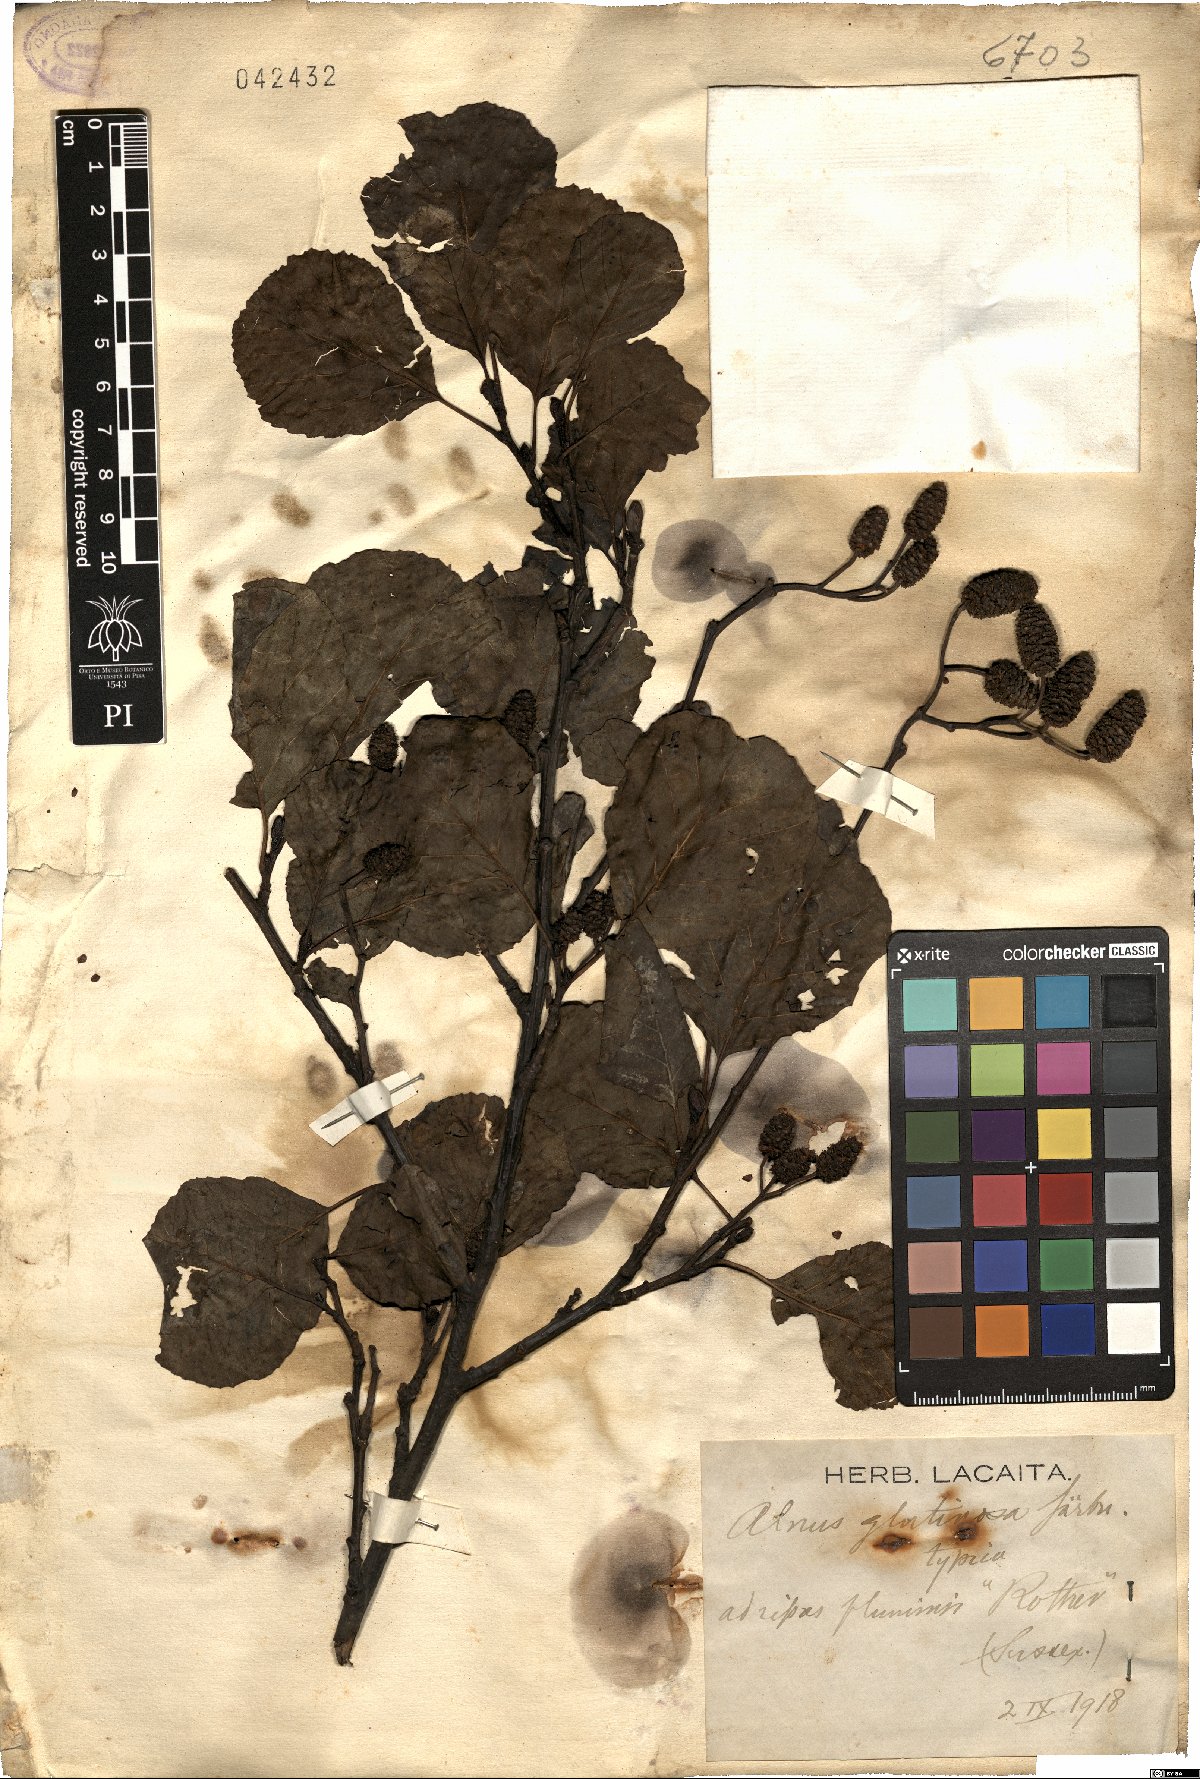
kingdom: Plantae
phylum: Tracheophyta
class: Magnoliopsida
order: Fagales
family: Betulaceae
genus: Alnus
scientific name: Alnus glutinosa
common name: Black alder
